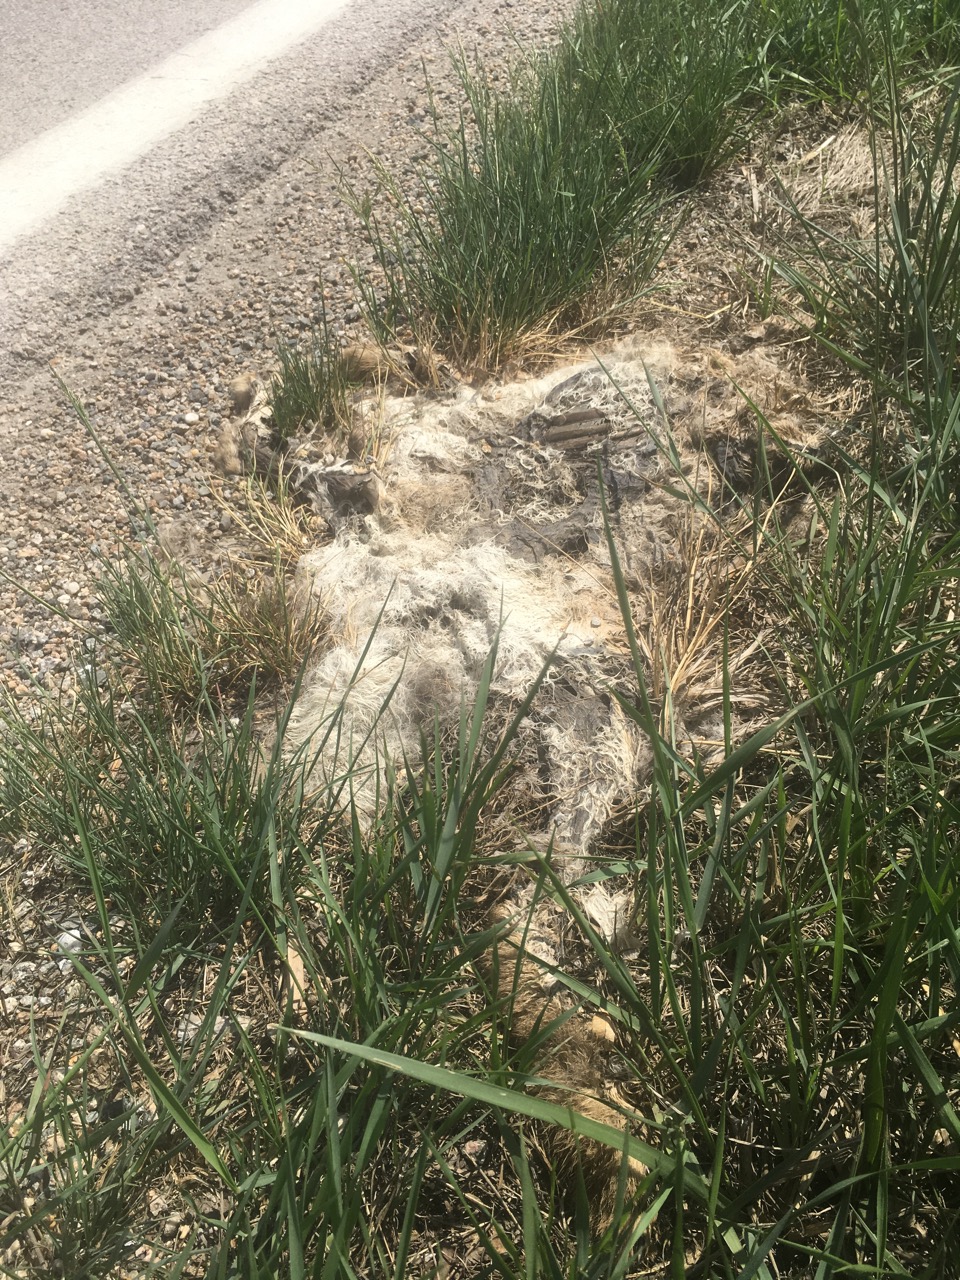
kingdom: Animalia
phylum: Chordata
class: Mammalia
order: Lagomorpha
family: Leporidae
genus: Lepus
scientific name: Lepus europaeus
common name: European hare
